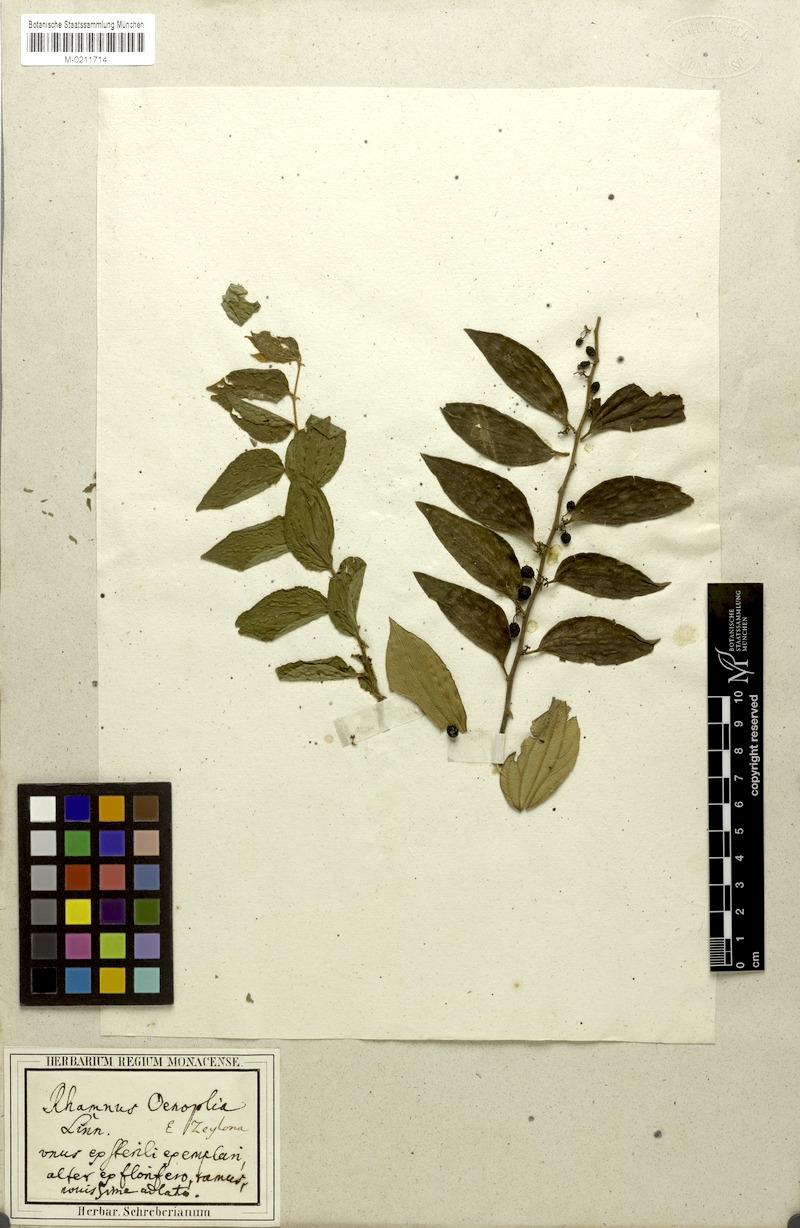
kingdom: Plantae
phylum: Tracheophyta
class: Magnoliopsida
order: Rosales
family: Rhamnaceae
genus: Ziziphus
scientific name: Ziziphus oenopolia
